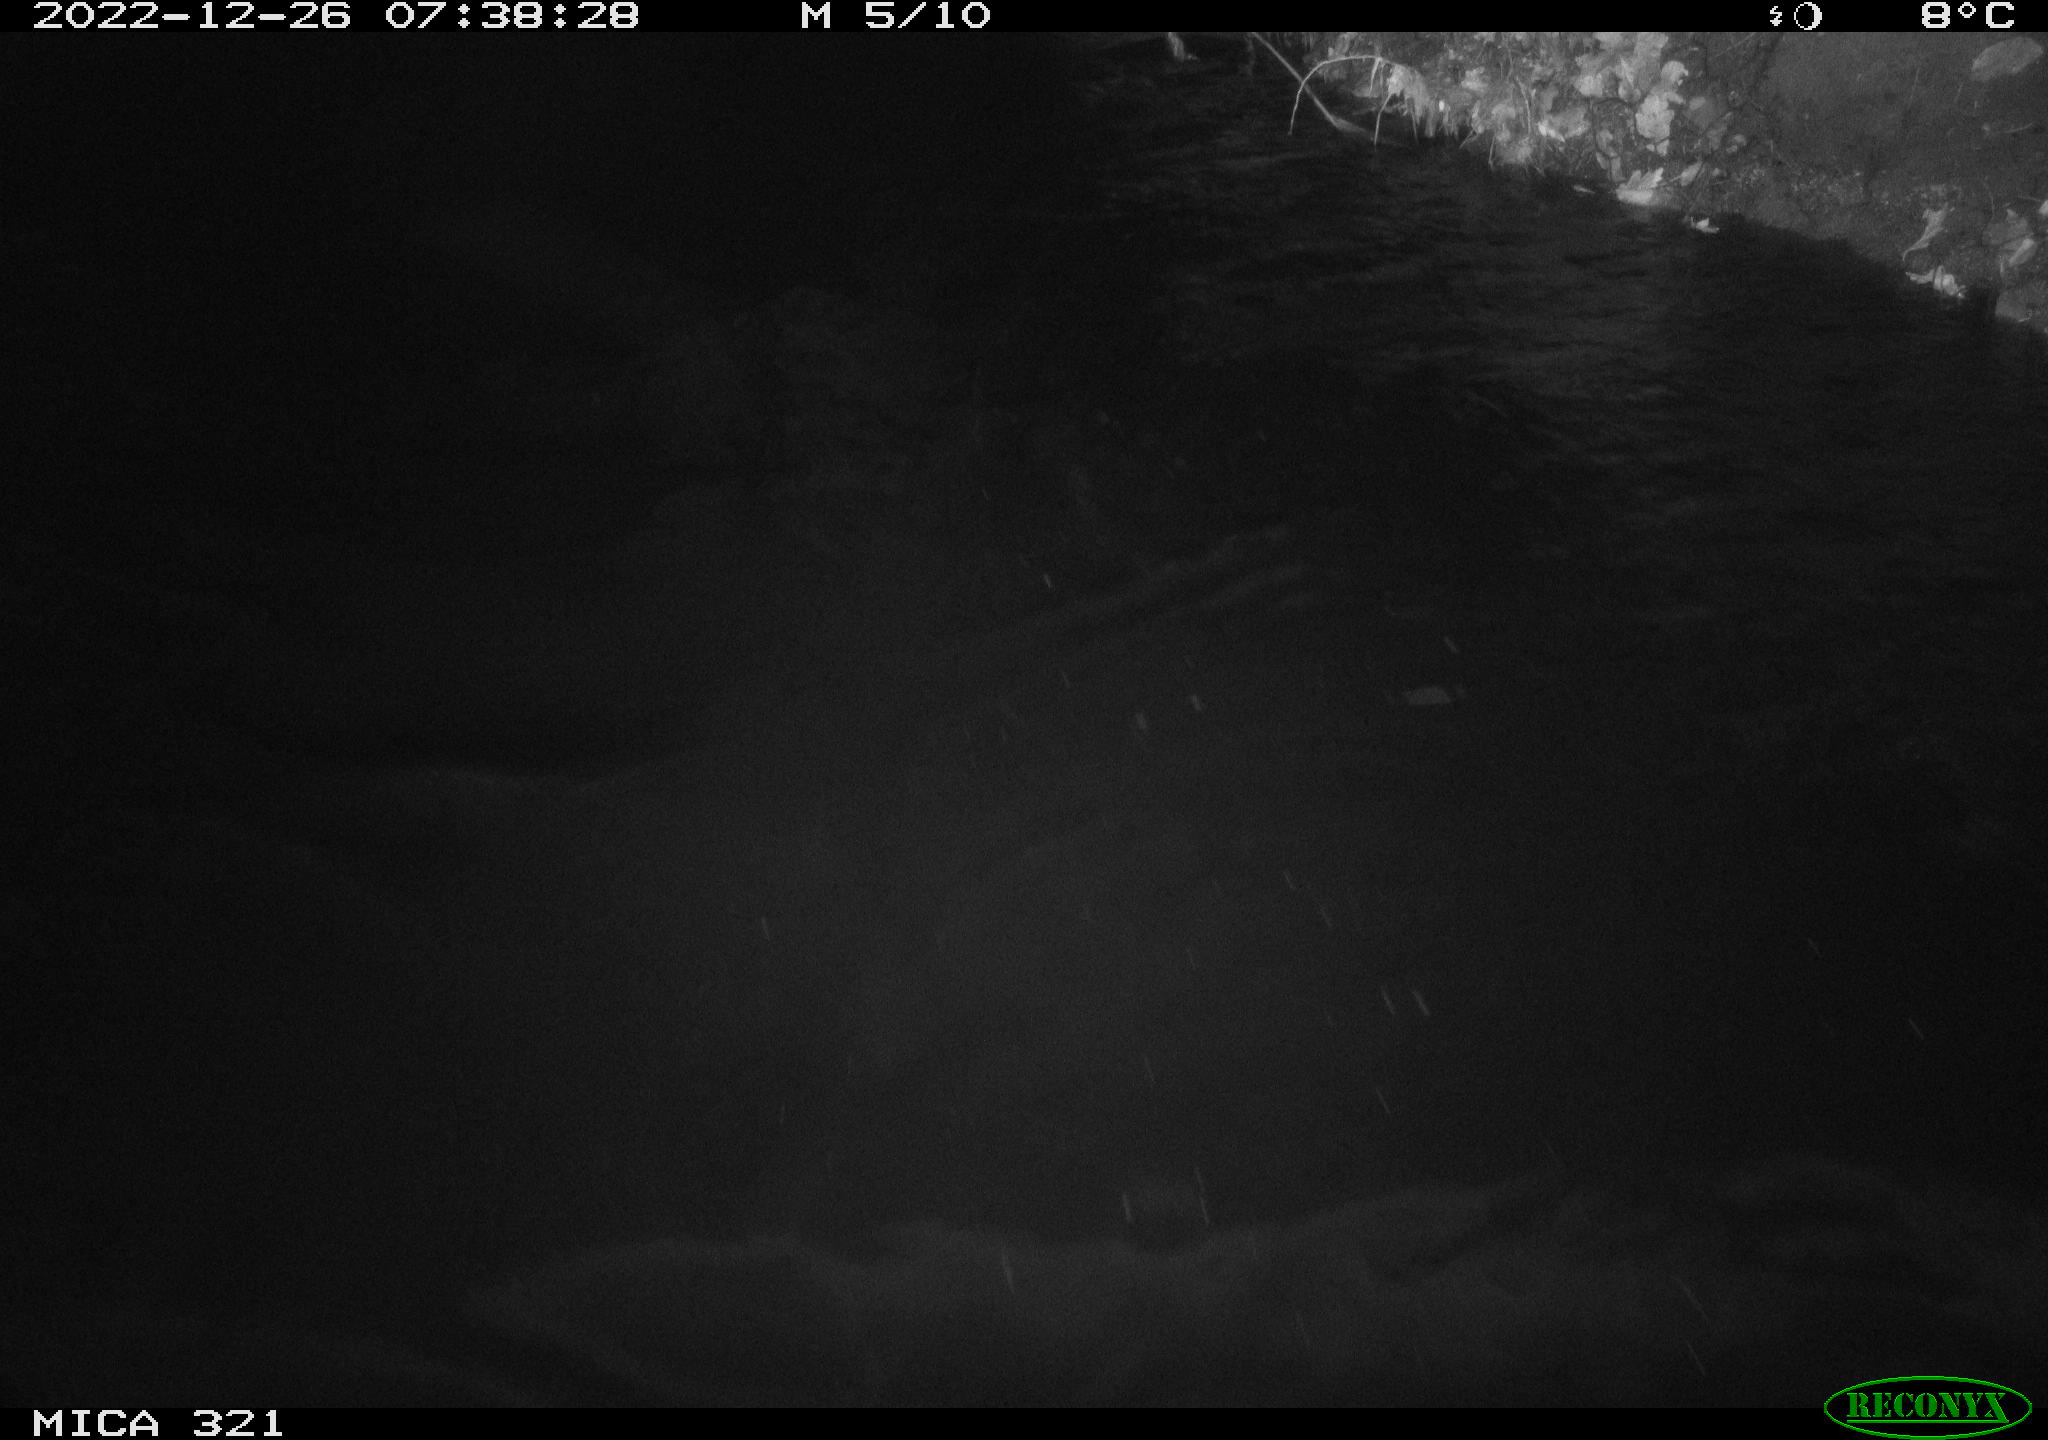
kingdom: Animalia
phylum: Chordata
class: Aves
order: Anseriformes
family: Anatidae
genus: Anas
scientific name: Anas
